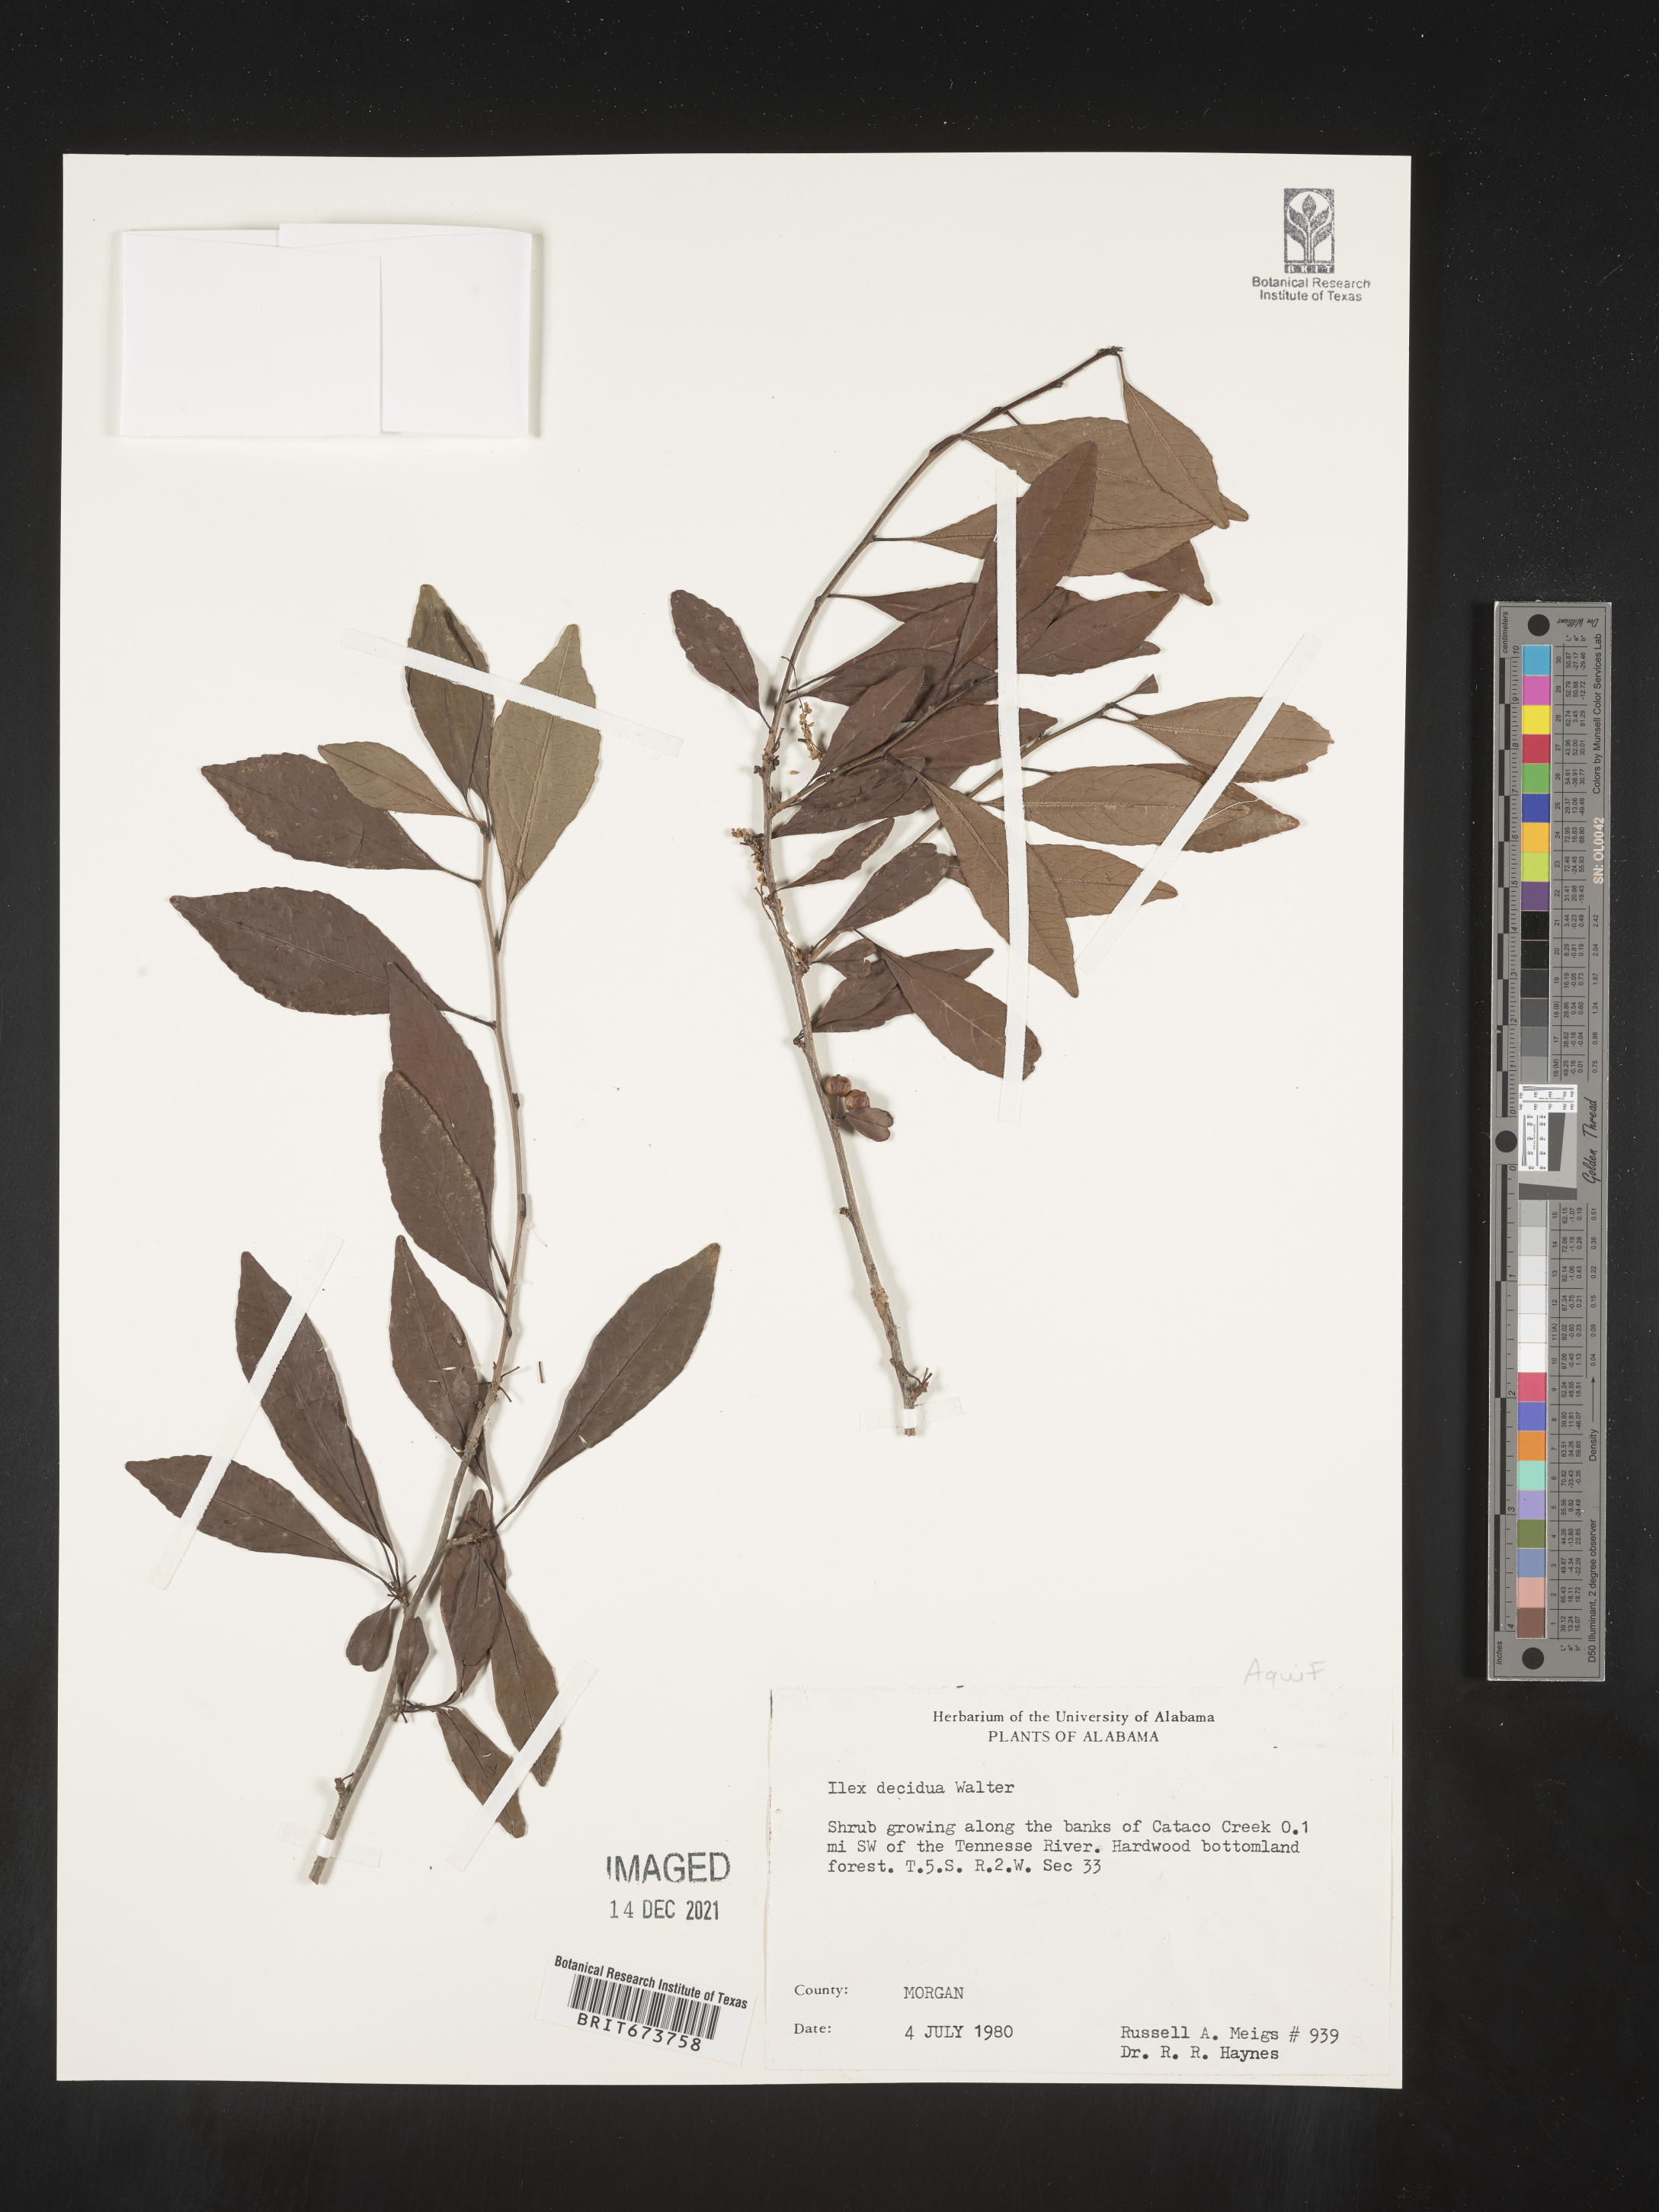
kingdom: Plantae
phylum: Tracheophyta
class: Magnoliopsida
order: Aquifoliales
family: Aquifoliaceae
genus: Ilex
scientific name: Ilex decidua
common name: Possum-haw
